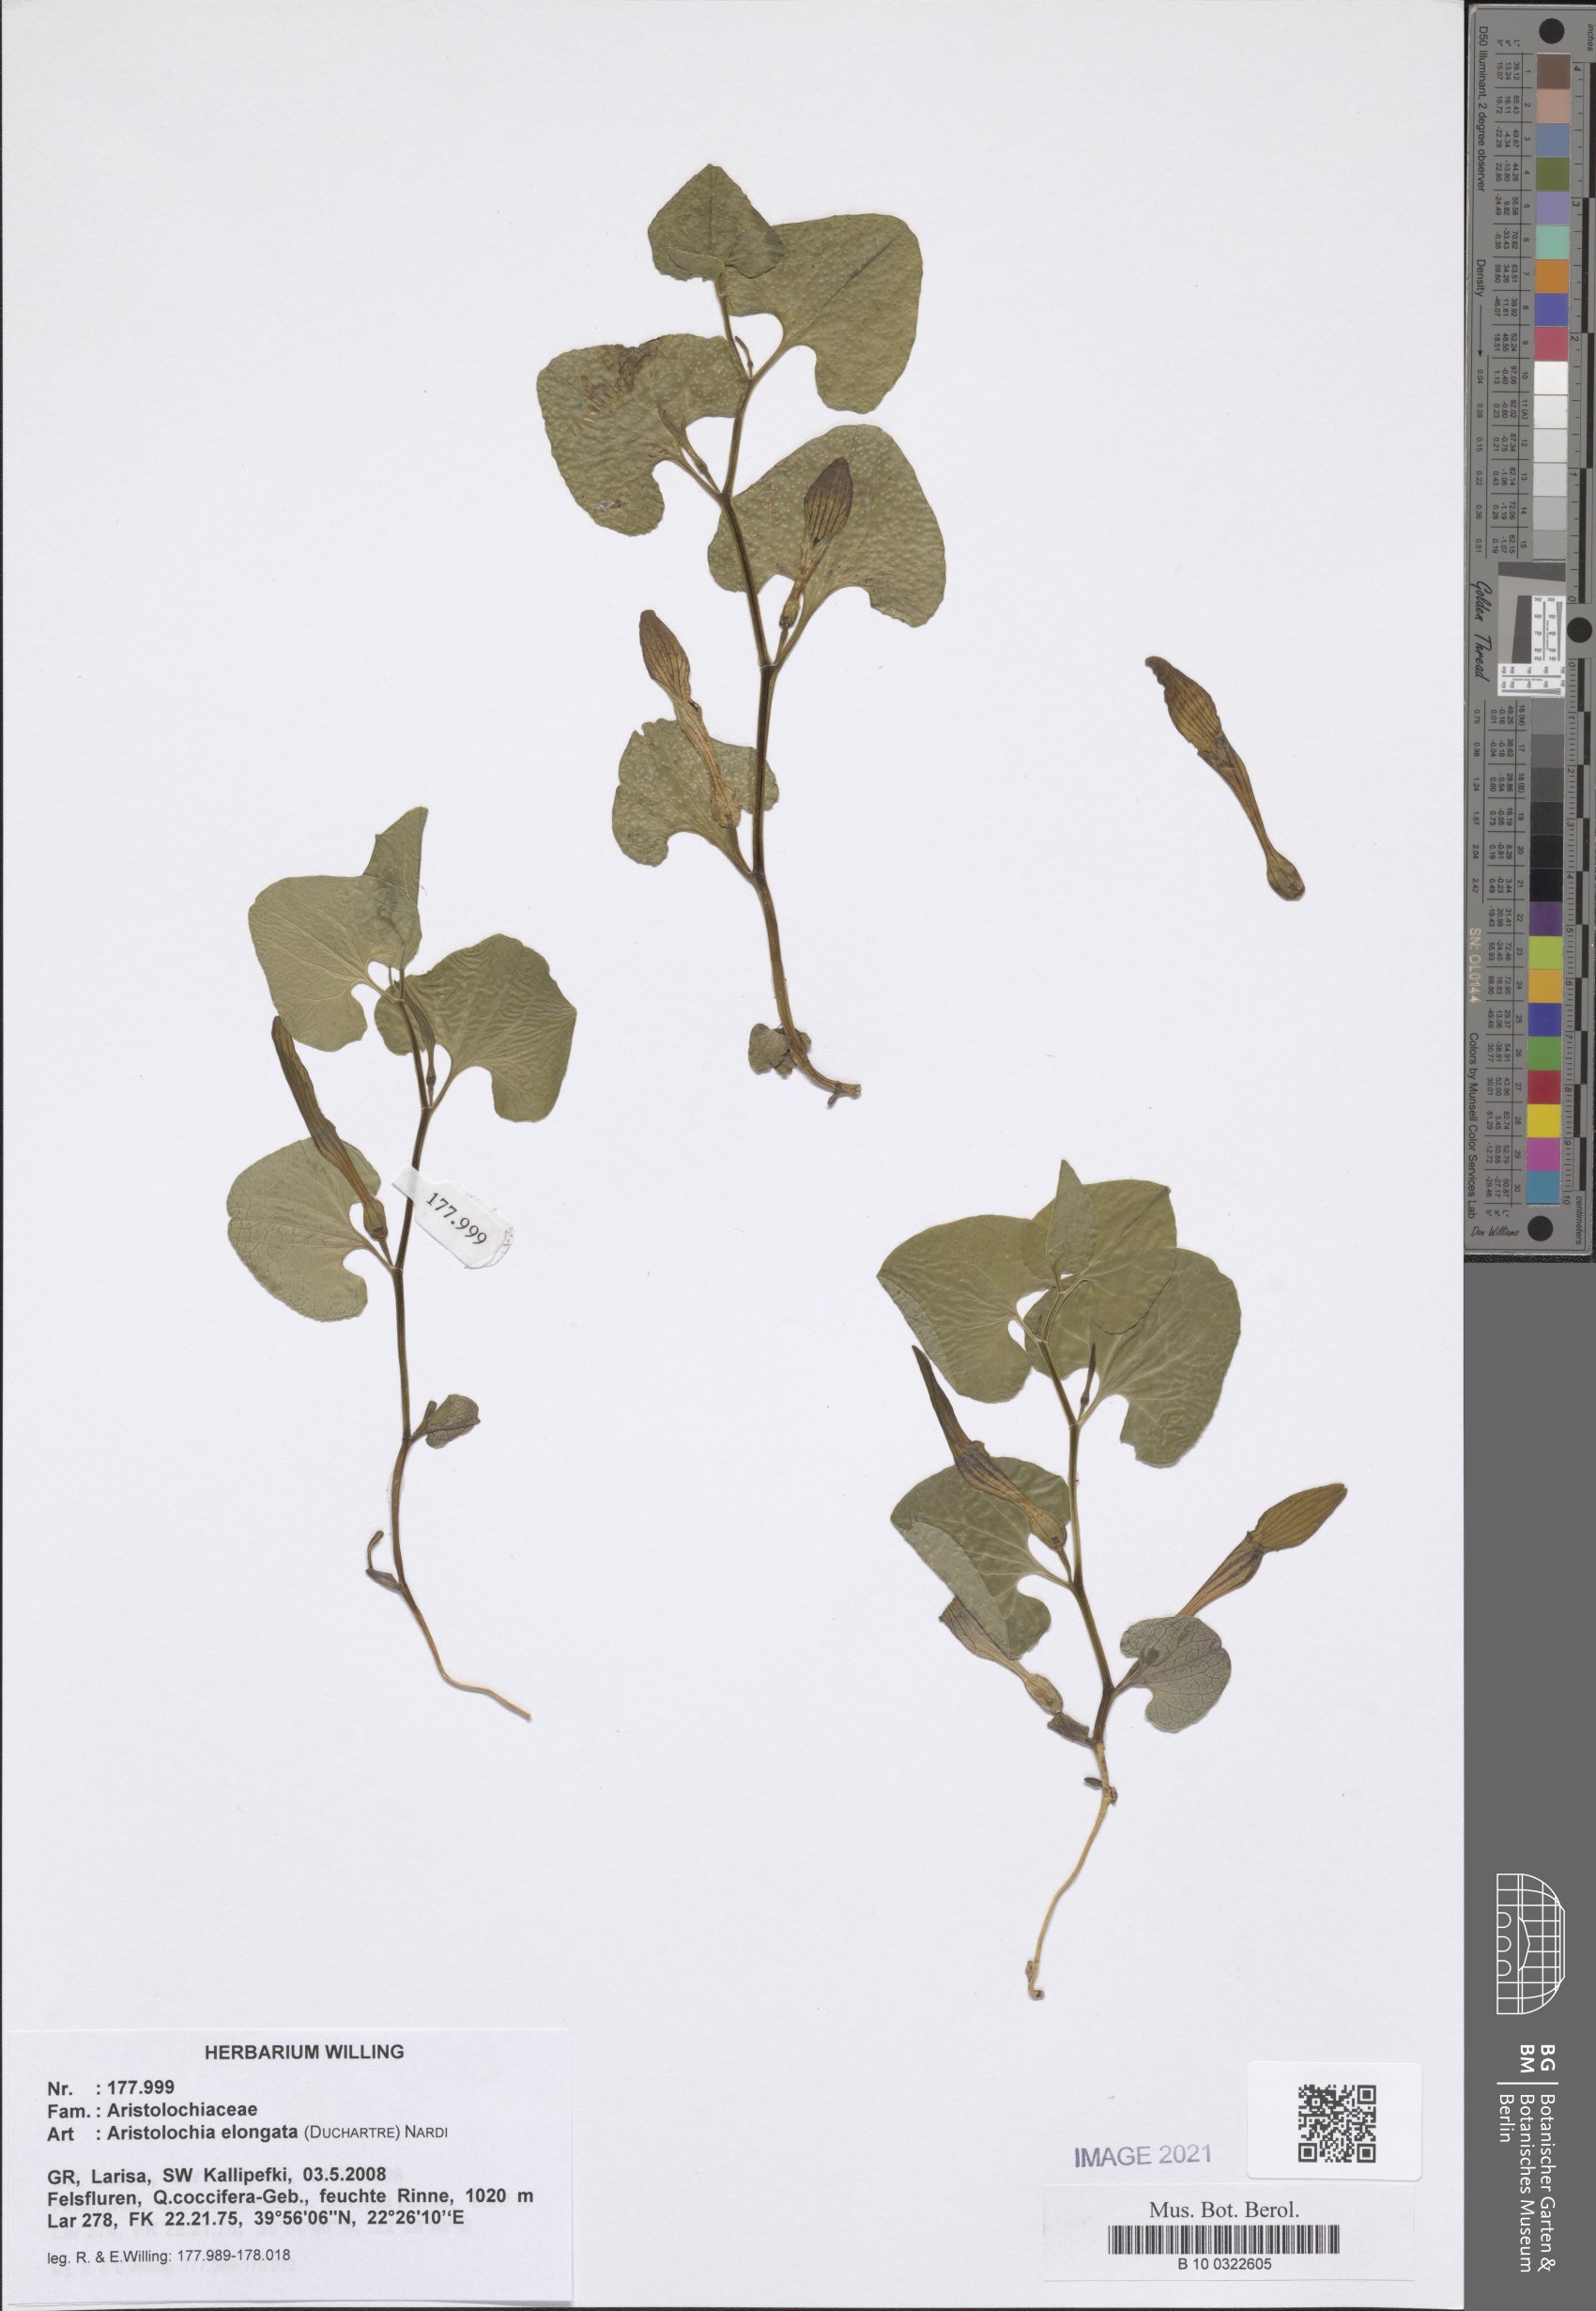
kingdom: Plantae
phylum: Tracheophyta
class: Magnoliopsida
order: Piperales
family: Aristolochiaceae
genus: Aristolochia
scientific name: Aristolochia nardiana
